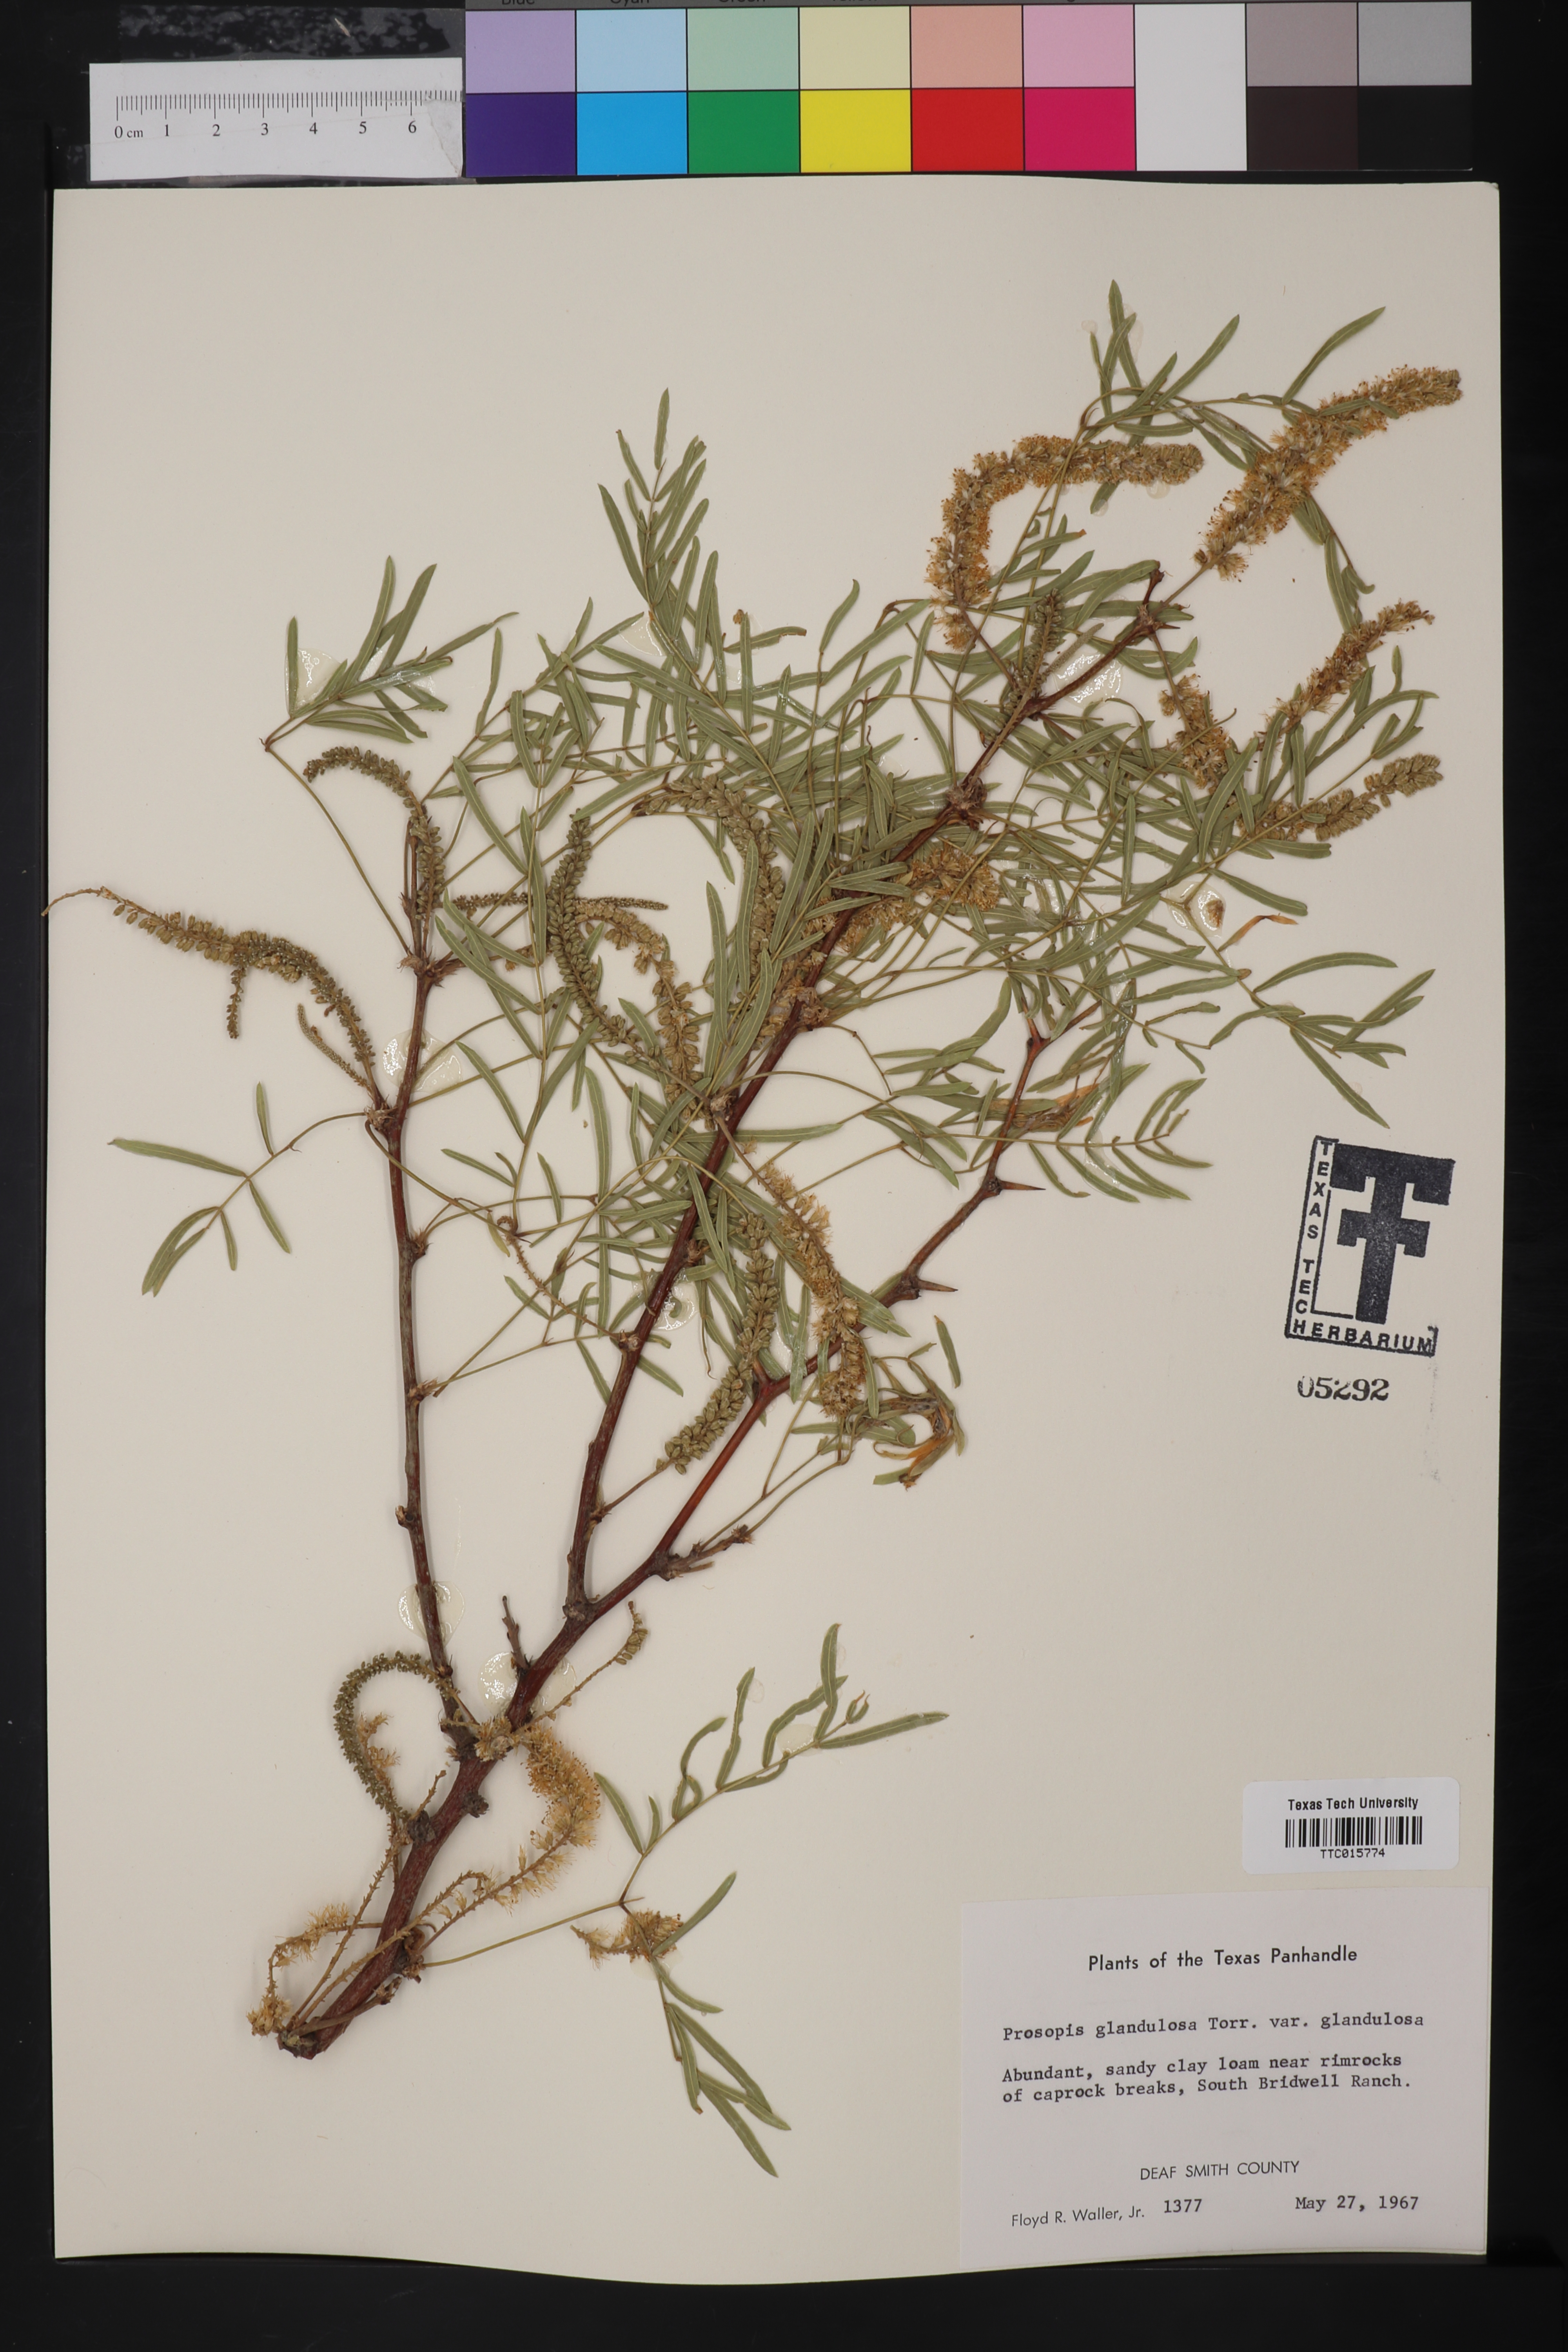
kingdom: Plantae
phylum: Tracheophyta
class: Magnoliopsida
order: Fabales
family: Fabaceae
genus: Prosopis
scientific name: Prosopis glandulosa
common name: Honey mesquite
